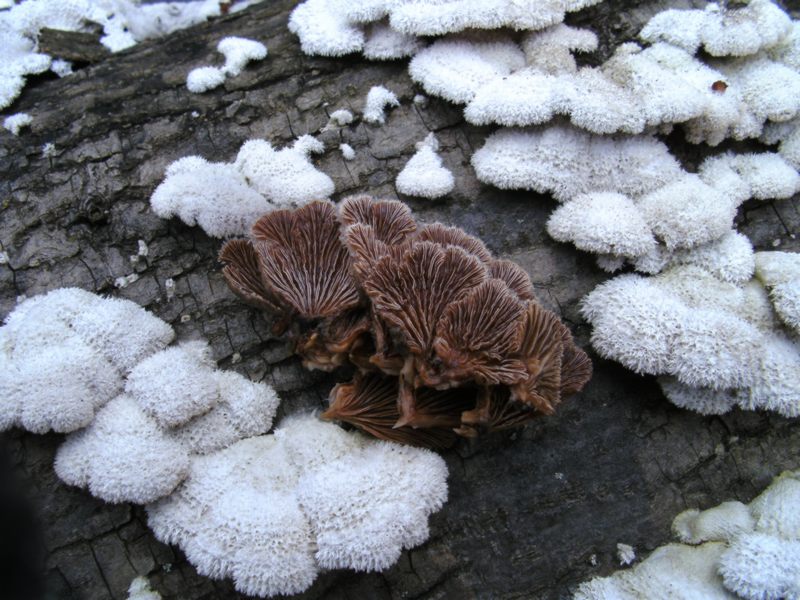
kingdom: Fungi
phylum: Basidiomycota
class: Agaricomycetes
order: Agaricales
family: Schizophyllaceae
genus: Schizophyllum
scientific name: Schizophyllum commune
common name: kløvblad
